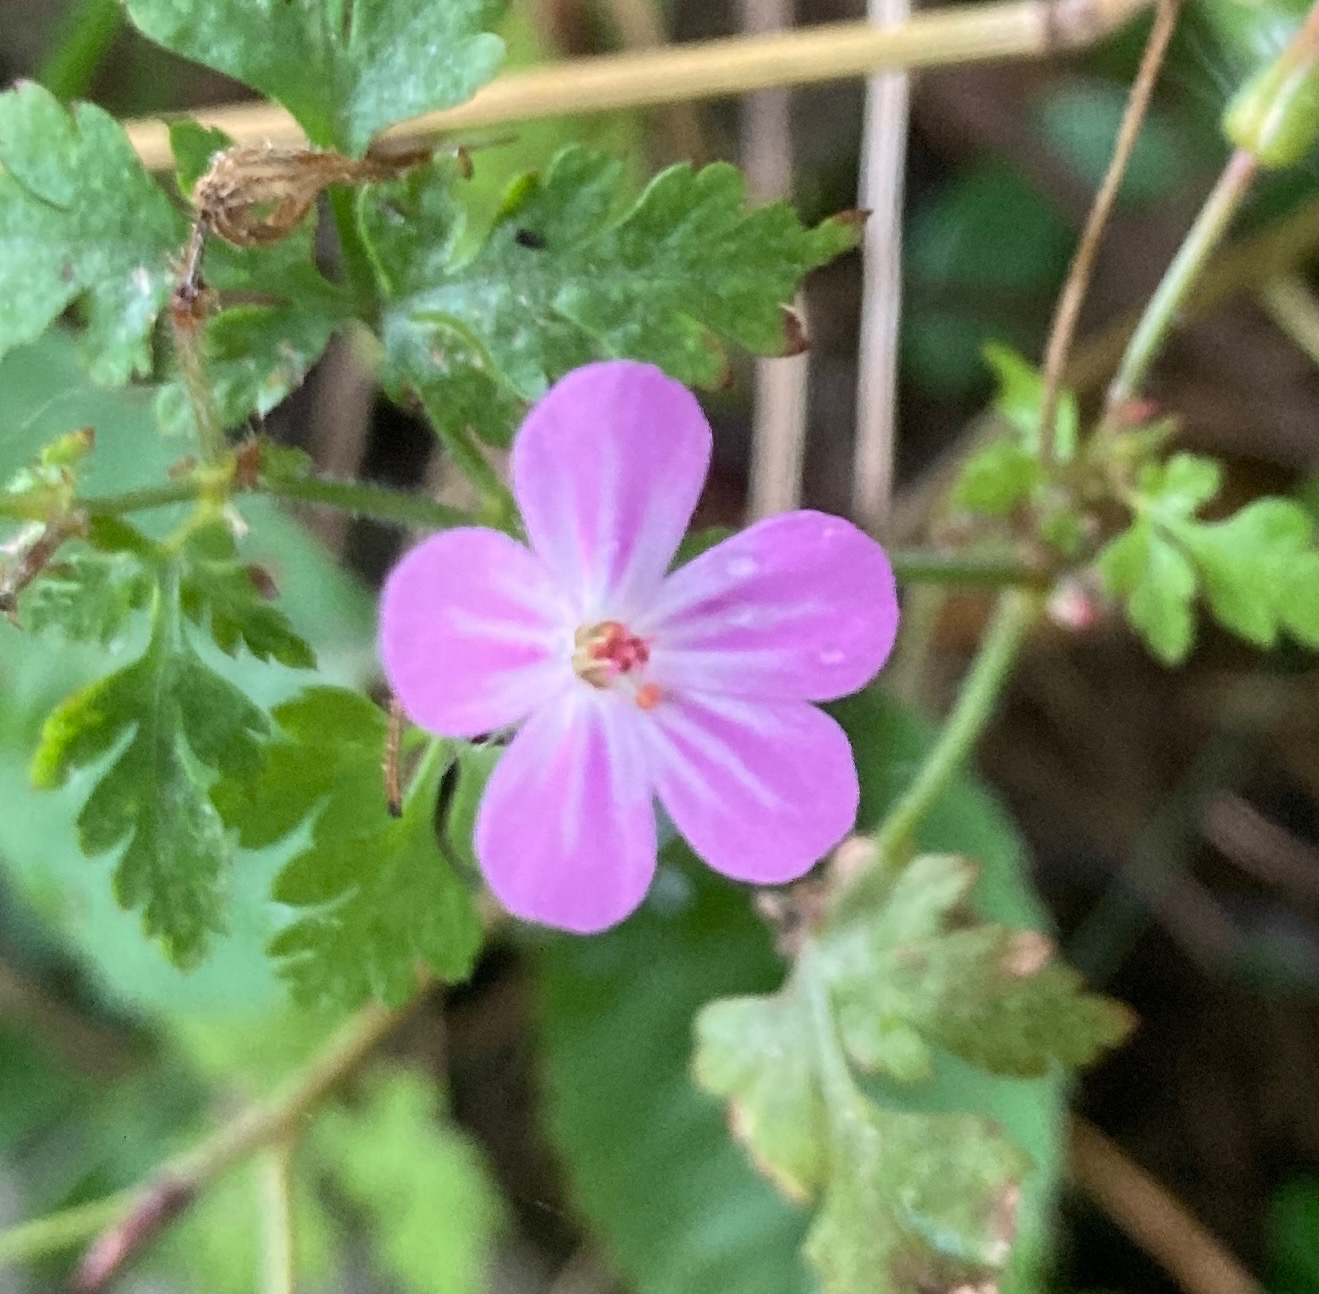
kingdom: Plantae
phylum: Tracheophyta
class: Magnoliopsida
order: Geraniales
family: Geraniaceae
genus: Geranium
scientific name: Geranium robertianum
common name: Stinkende storkenæb
